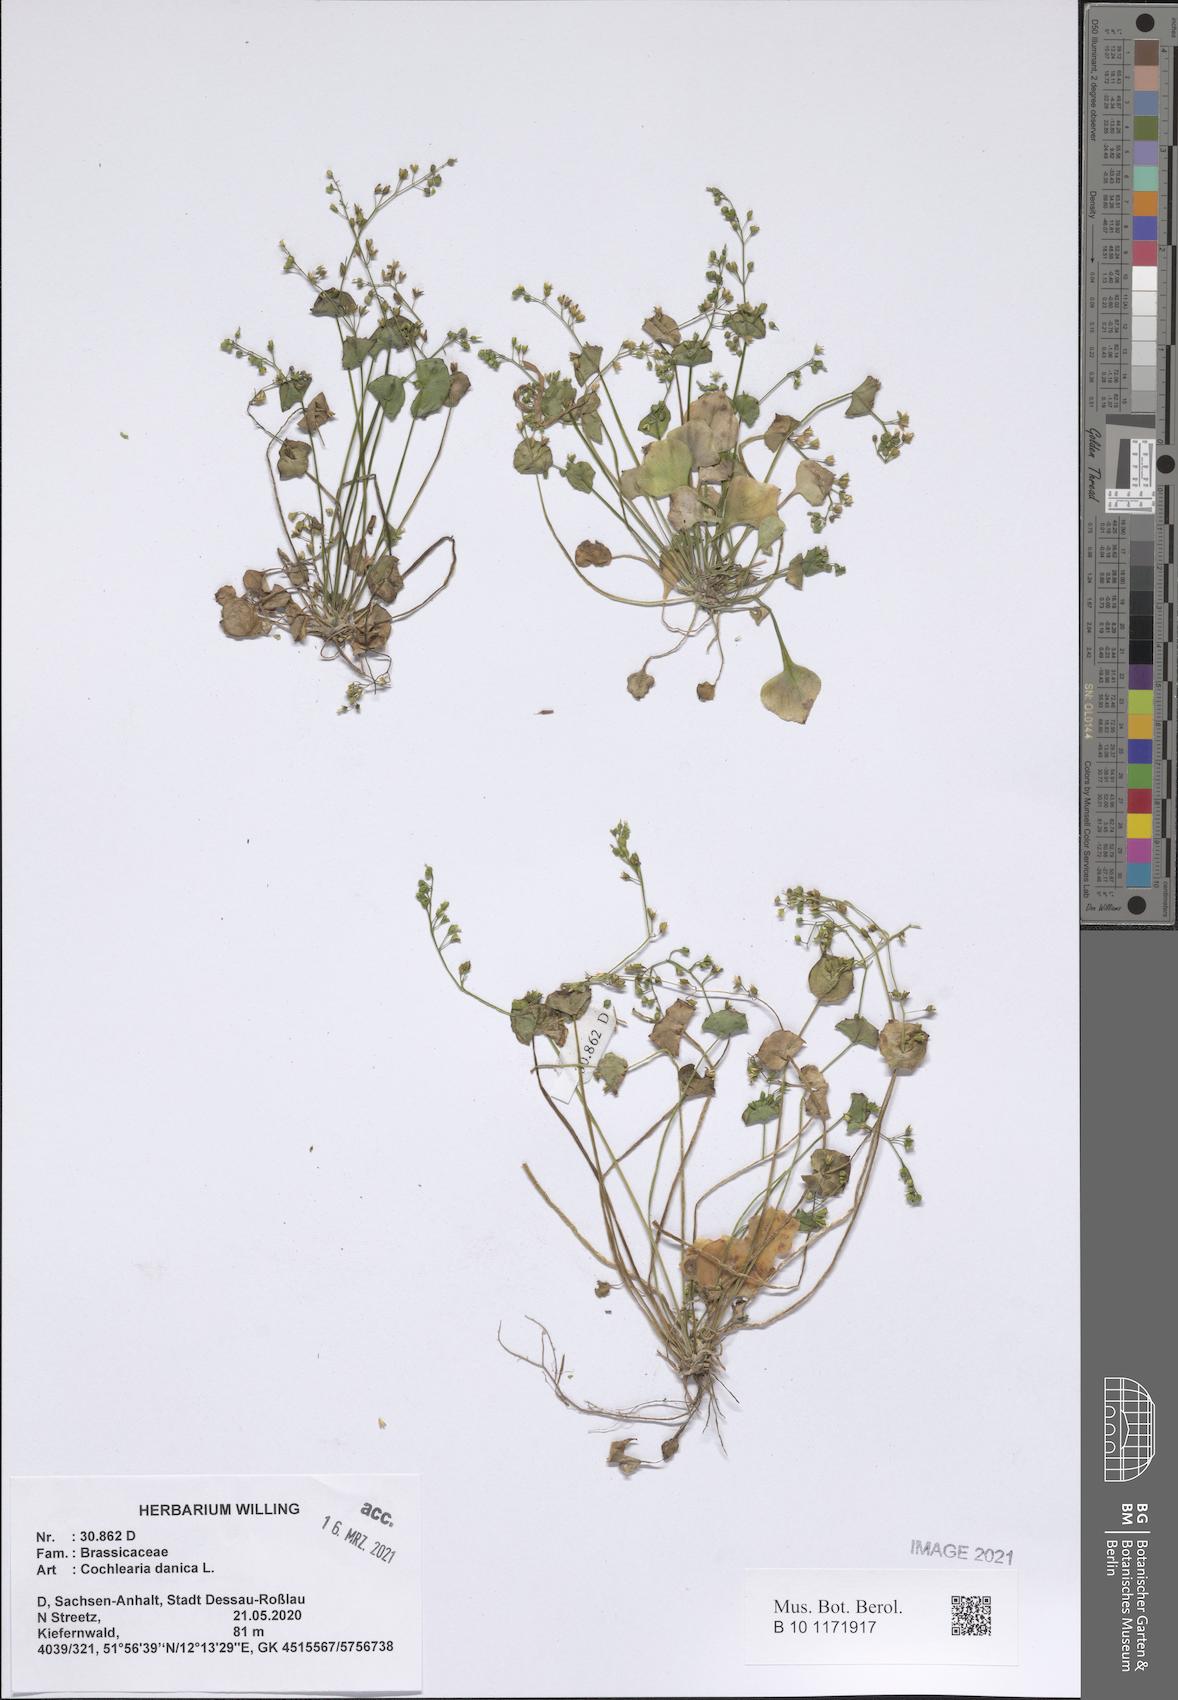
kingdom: Plantae
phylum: Tracheophyta
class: Magnoliopsida
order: Brassicales
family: Brassicaceae
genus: Cochlearia
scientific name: Cochlearia danica
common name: Early scurvygrass
